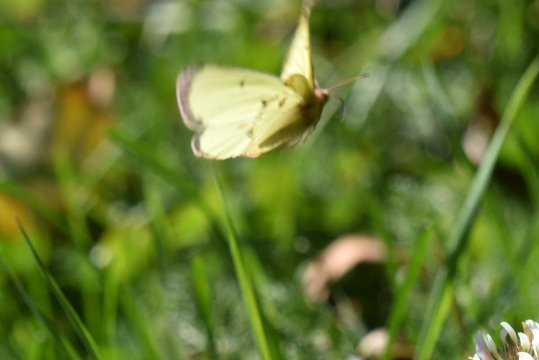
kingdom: Animalia
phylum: Arthropoda
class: Insecta
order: Lepidoptera
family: Pieridae
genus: Colias
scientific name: Colias philodice
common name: Clouded Sulphur
